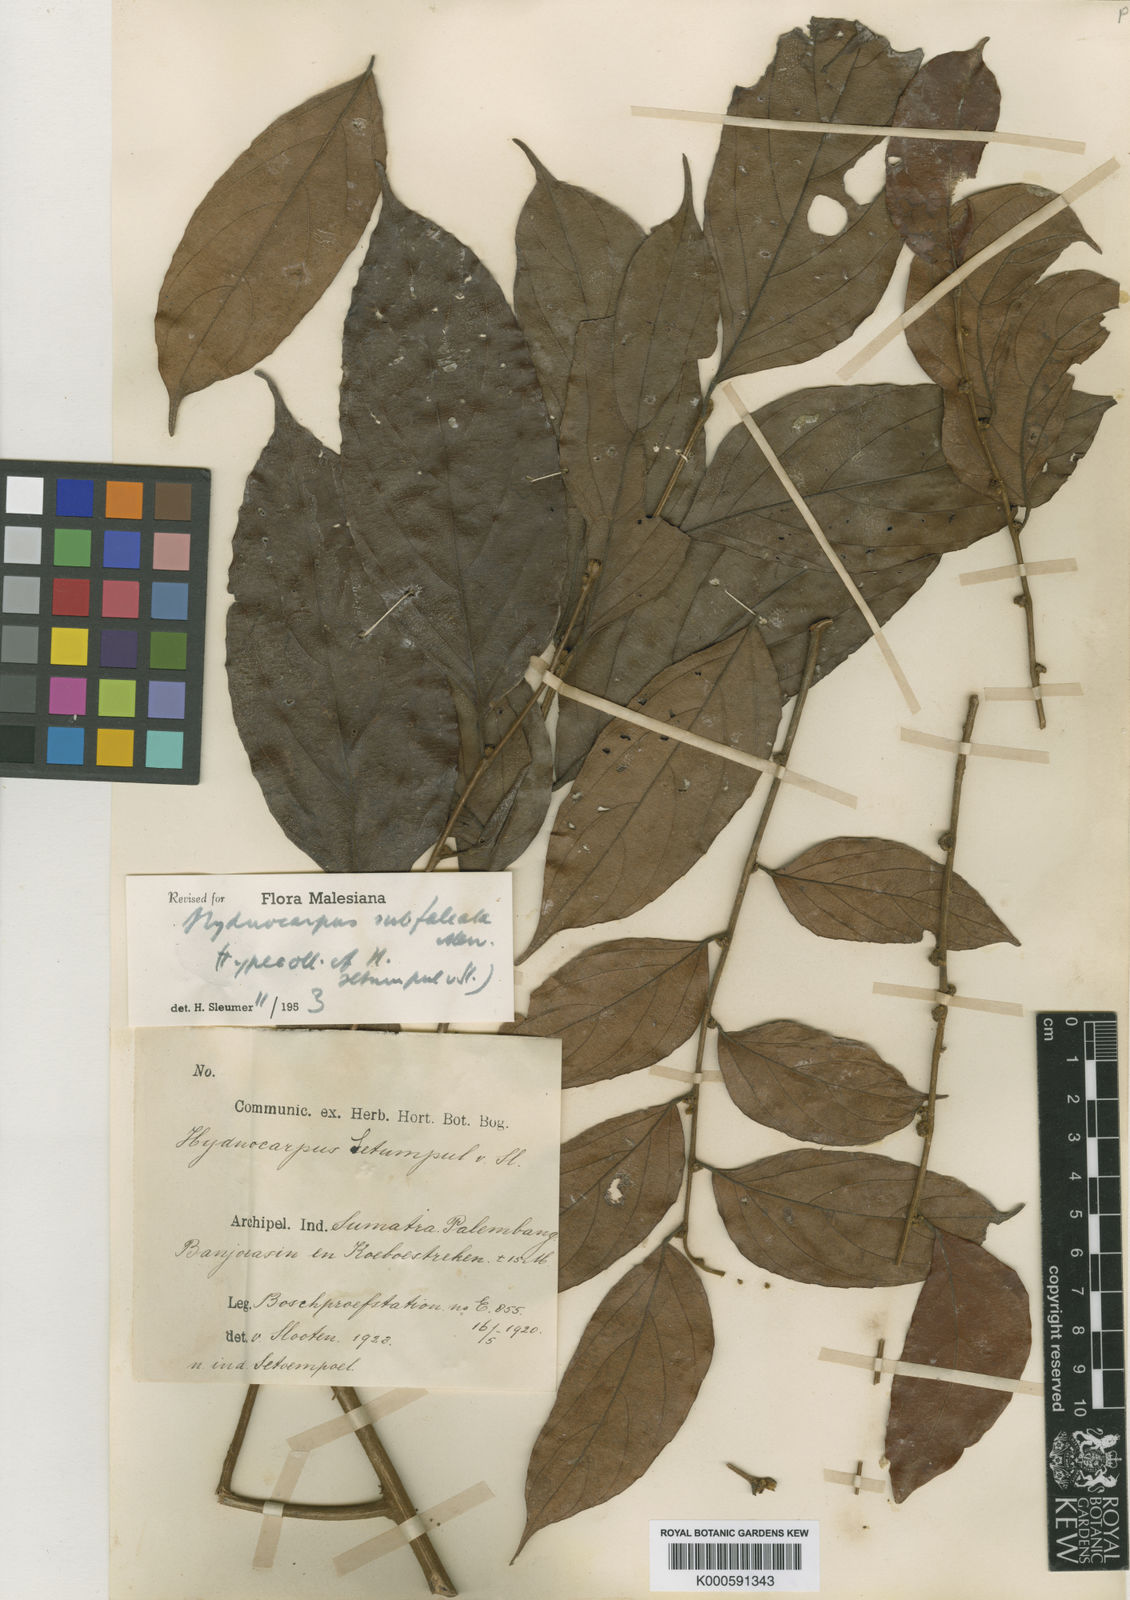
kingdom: Plantae
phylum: Tracheophyta
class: Magnoliopsida
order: Malpighiales
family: Achariaceae
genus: Hydnocarpus
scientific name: Hydnocarpus subfalcatus
